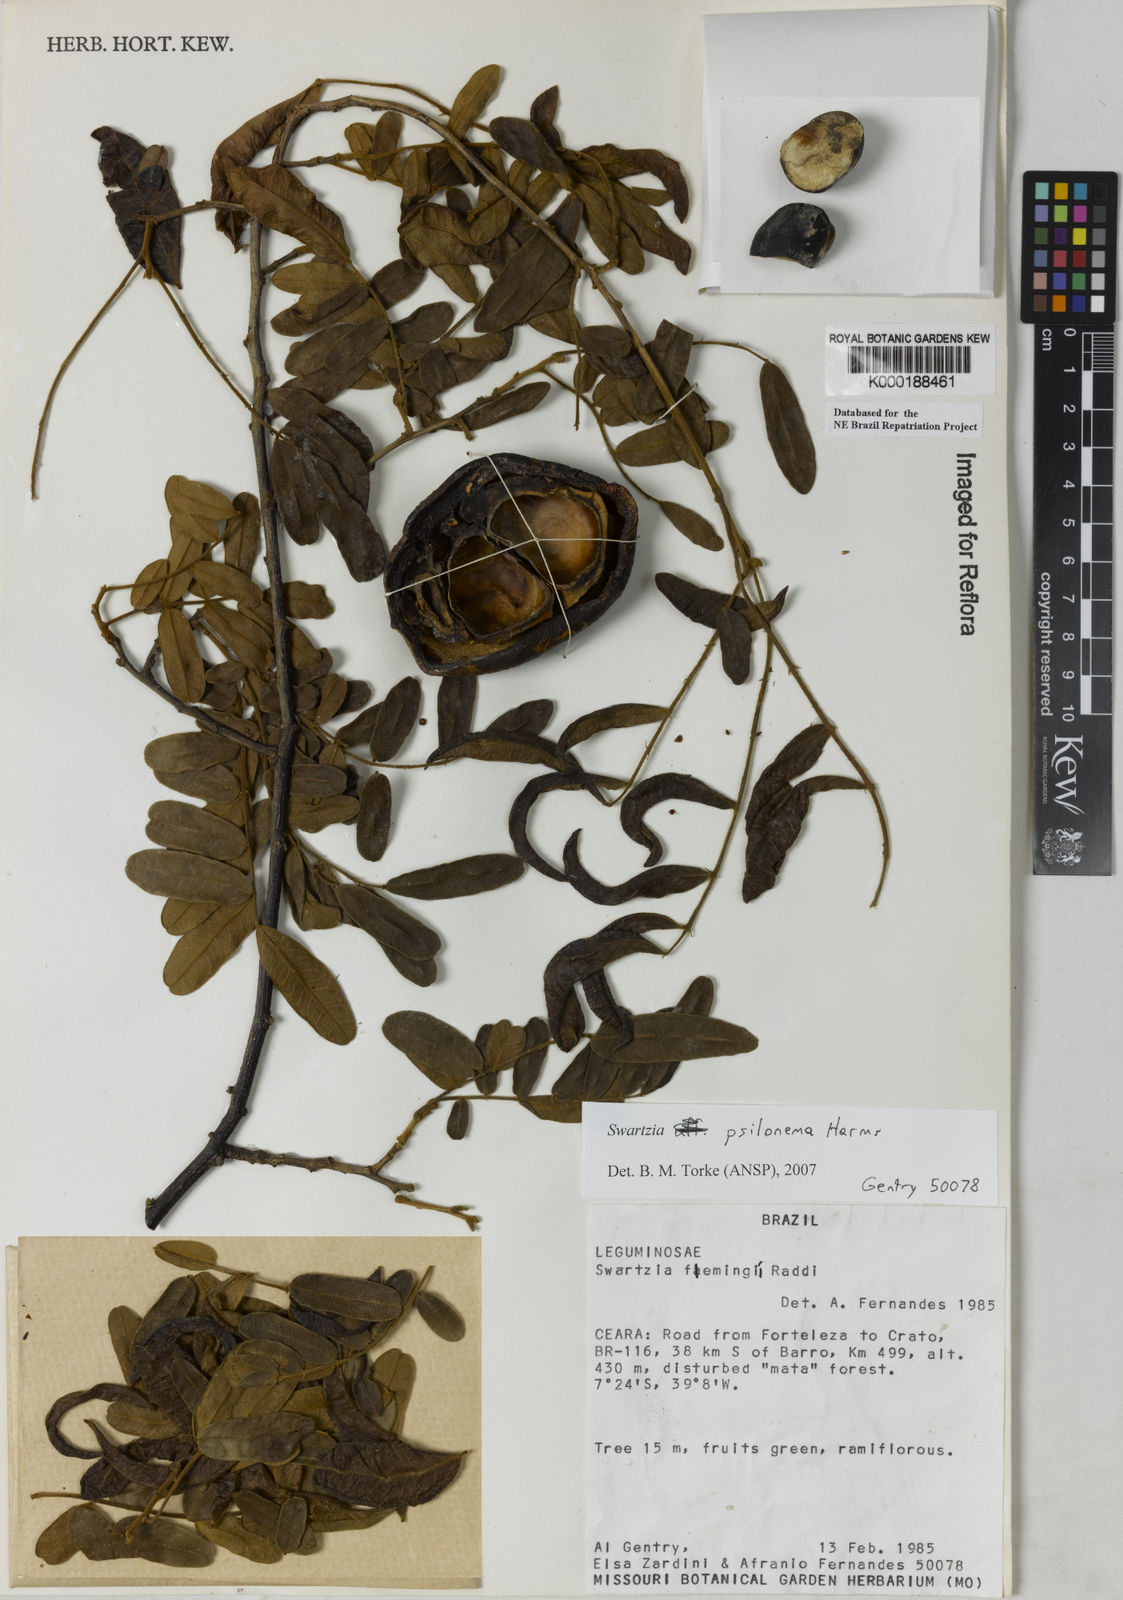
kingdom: Plantae
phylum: Tracheophyta
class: Magnoliopsida
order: Fabales
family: Fabaceae
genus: Swartzia
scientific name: Swartzia flaemingii
